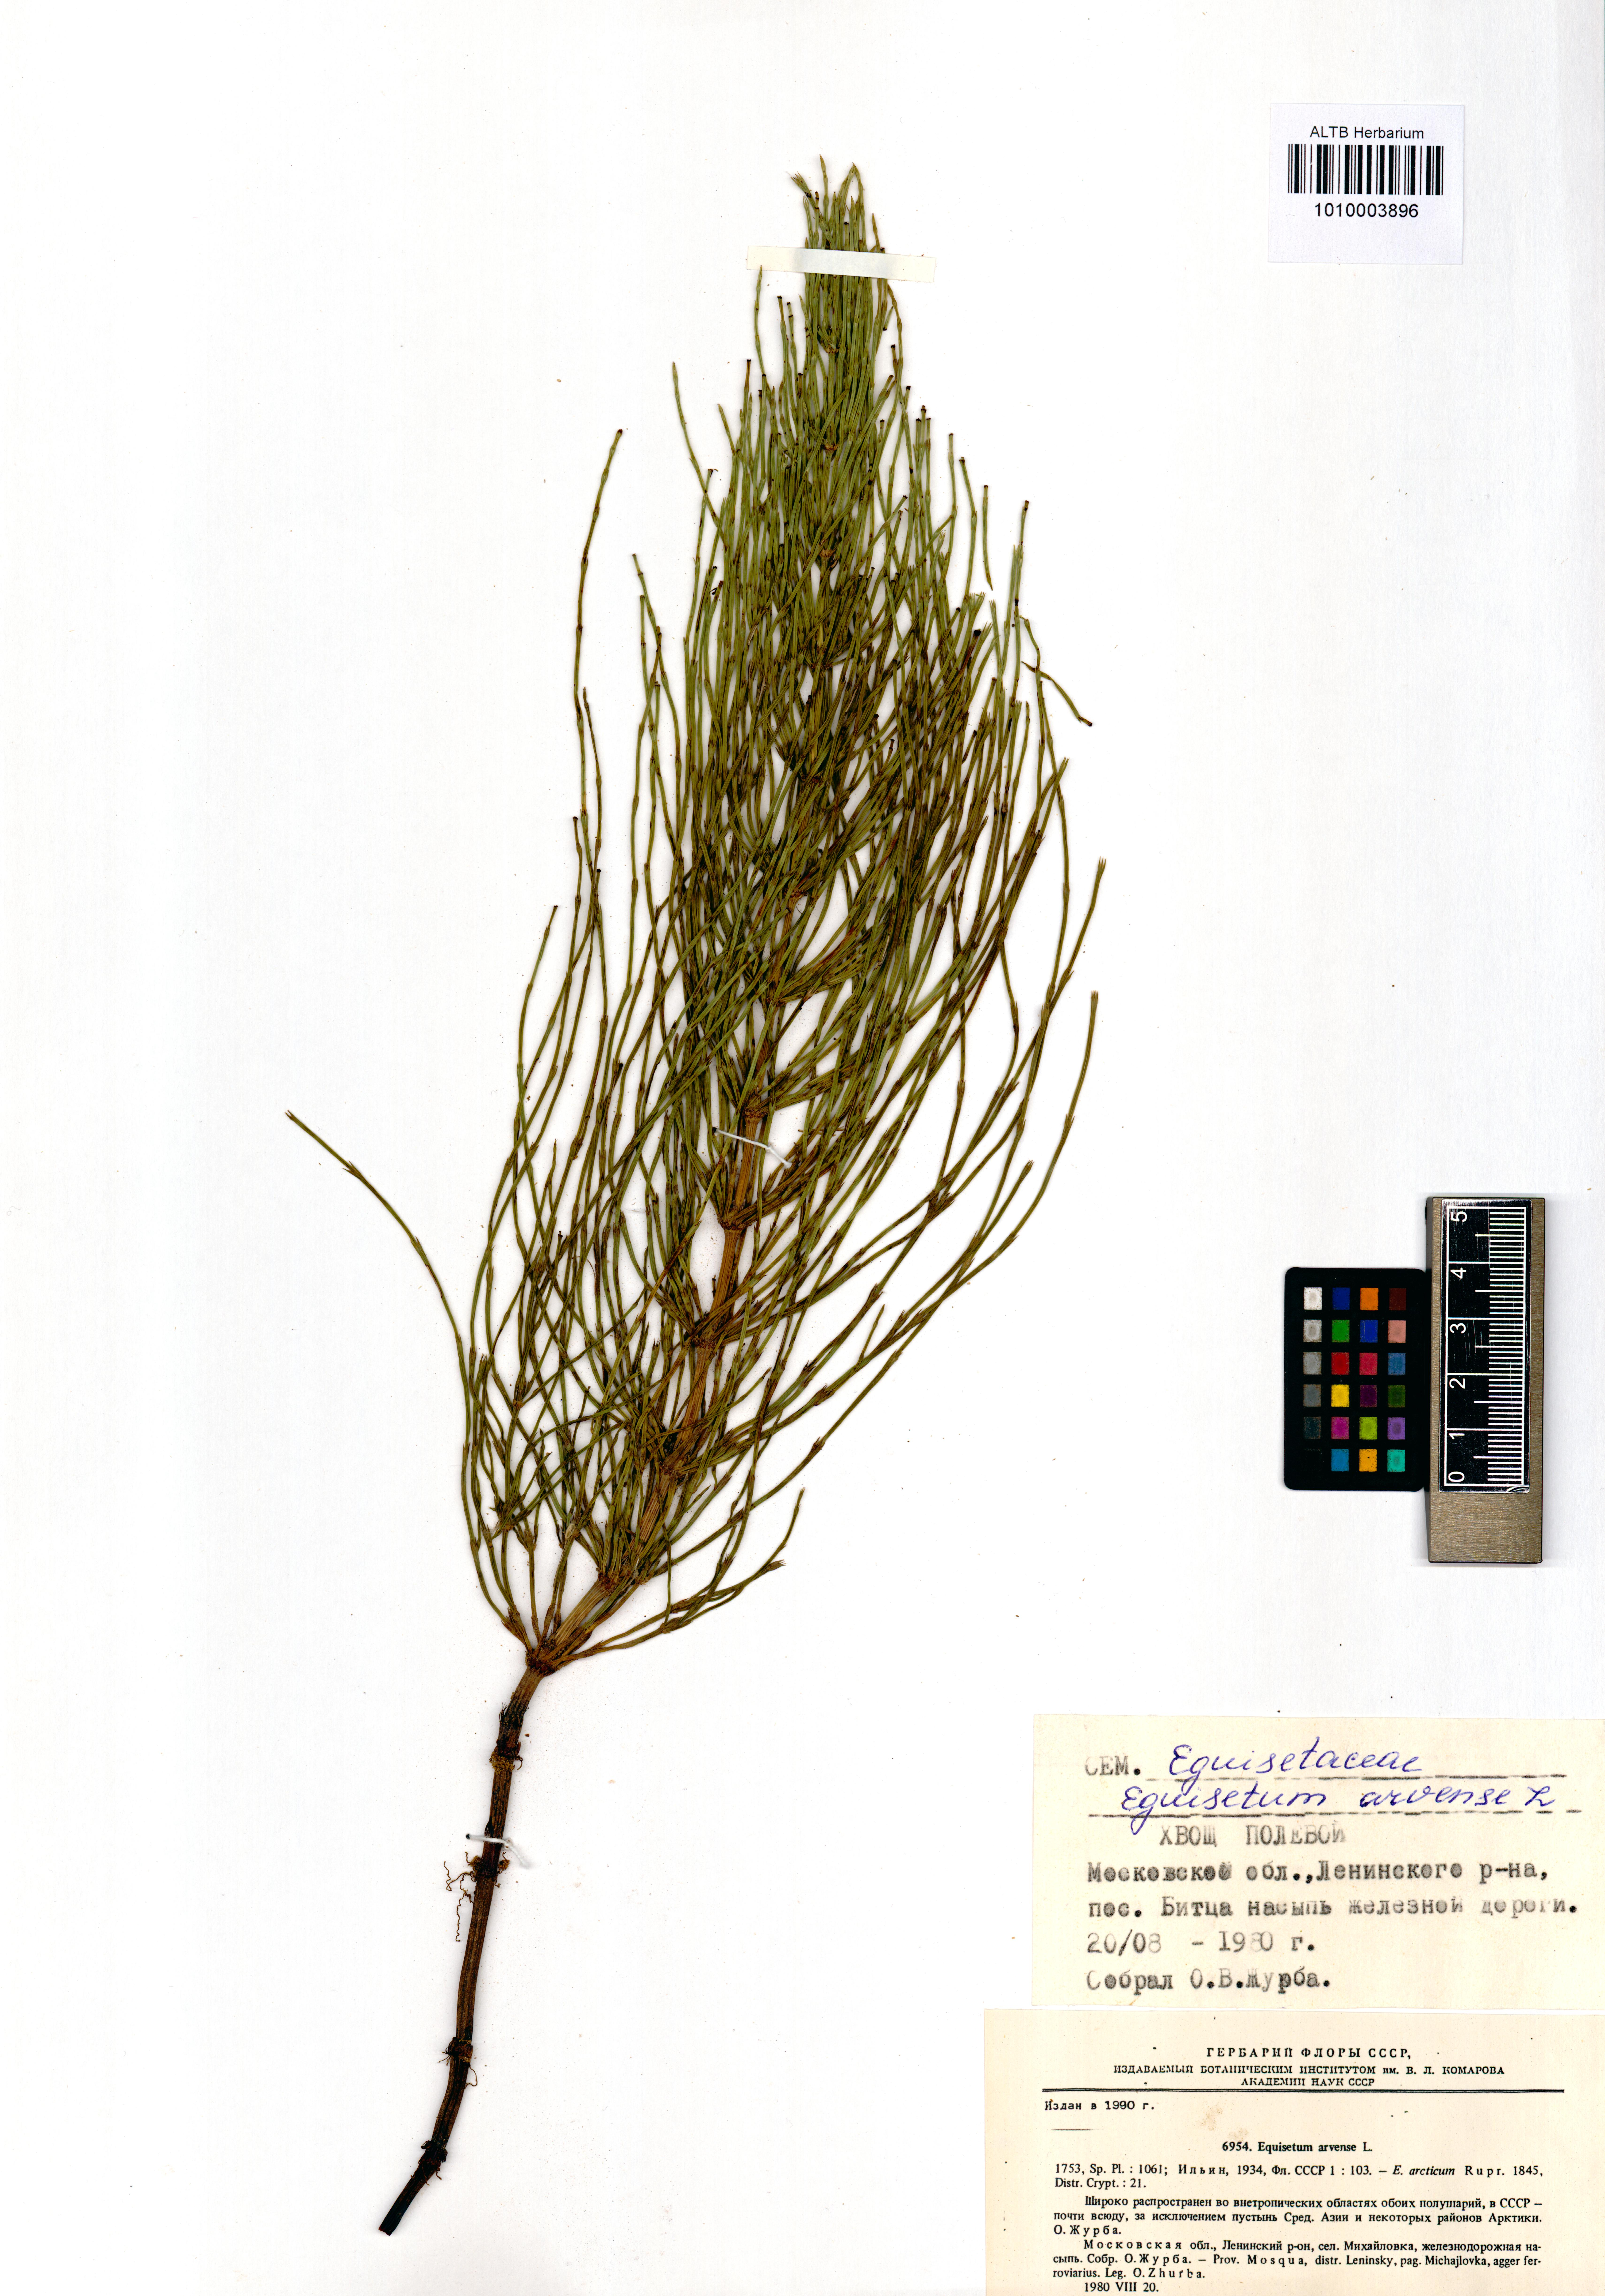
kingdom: Plantae
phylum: Tracheophyta
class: Polypodiopsida
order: Equisetales
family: Equisetaceae
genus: Equisetum
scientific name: Equisetum arvense
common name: Field horsetail
